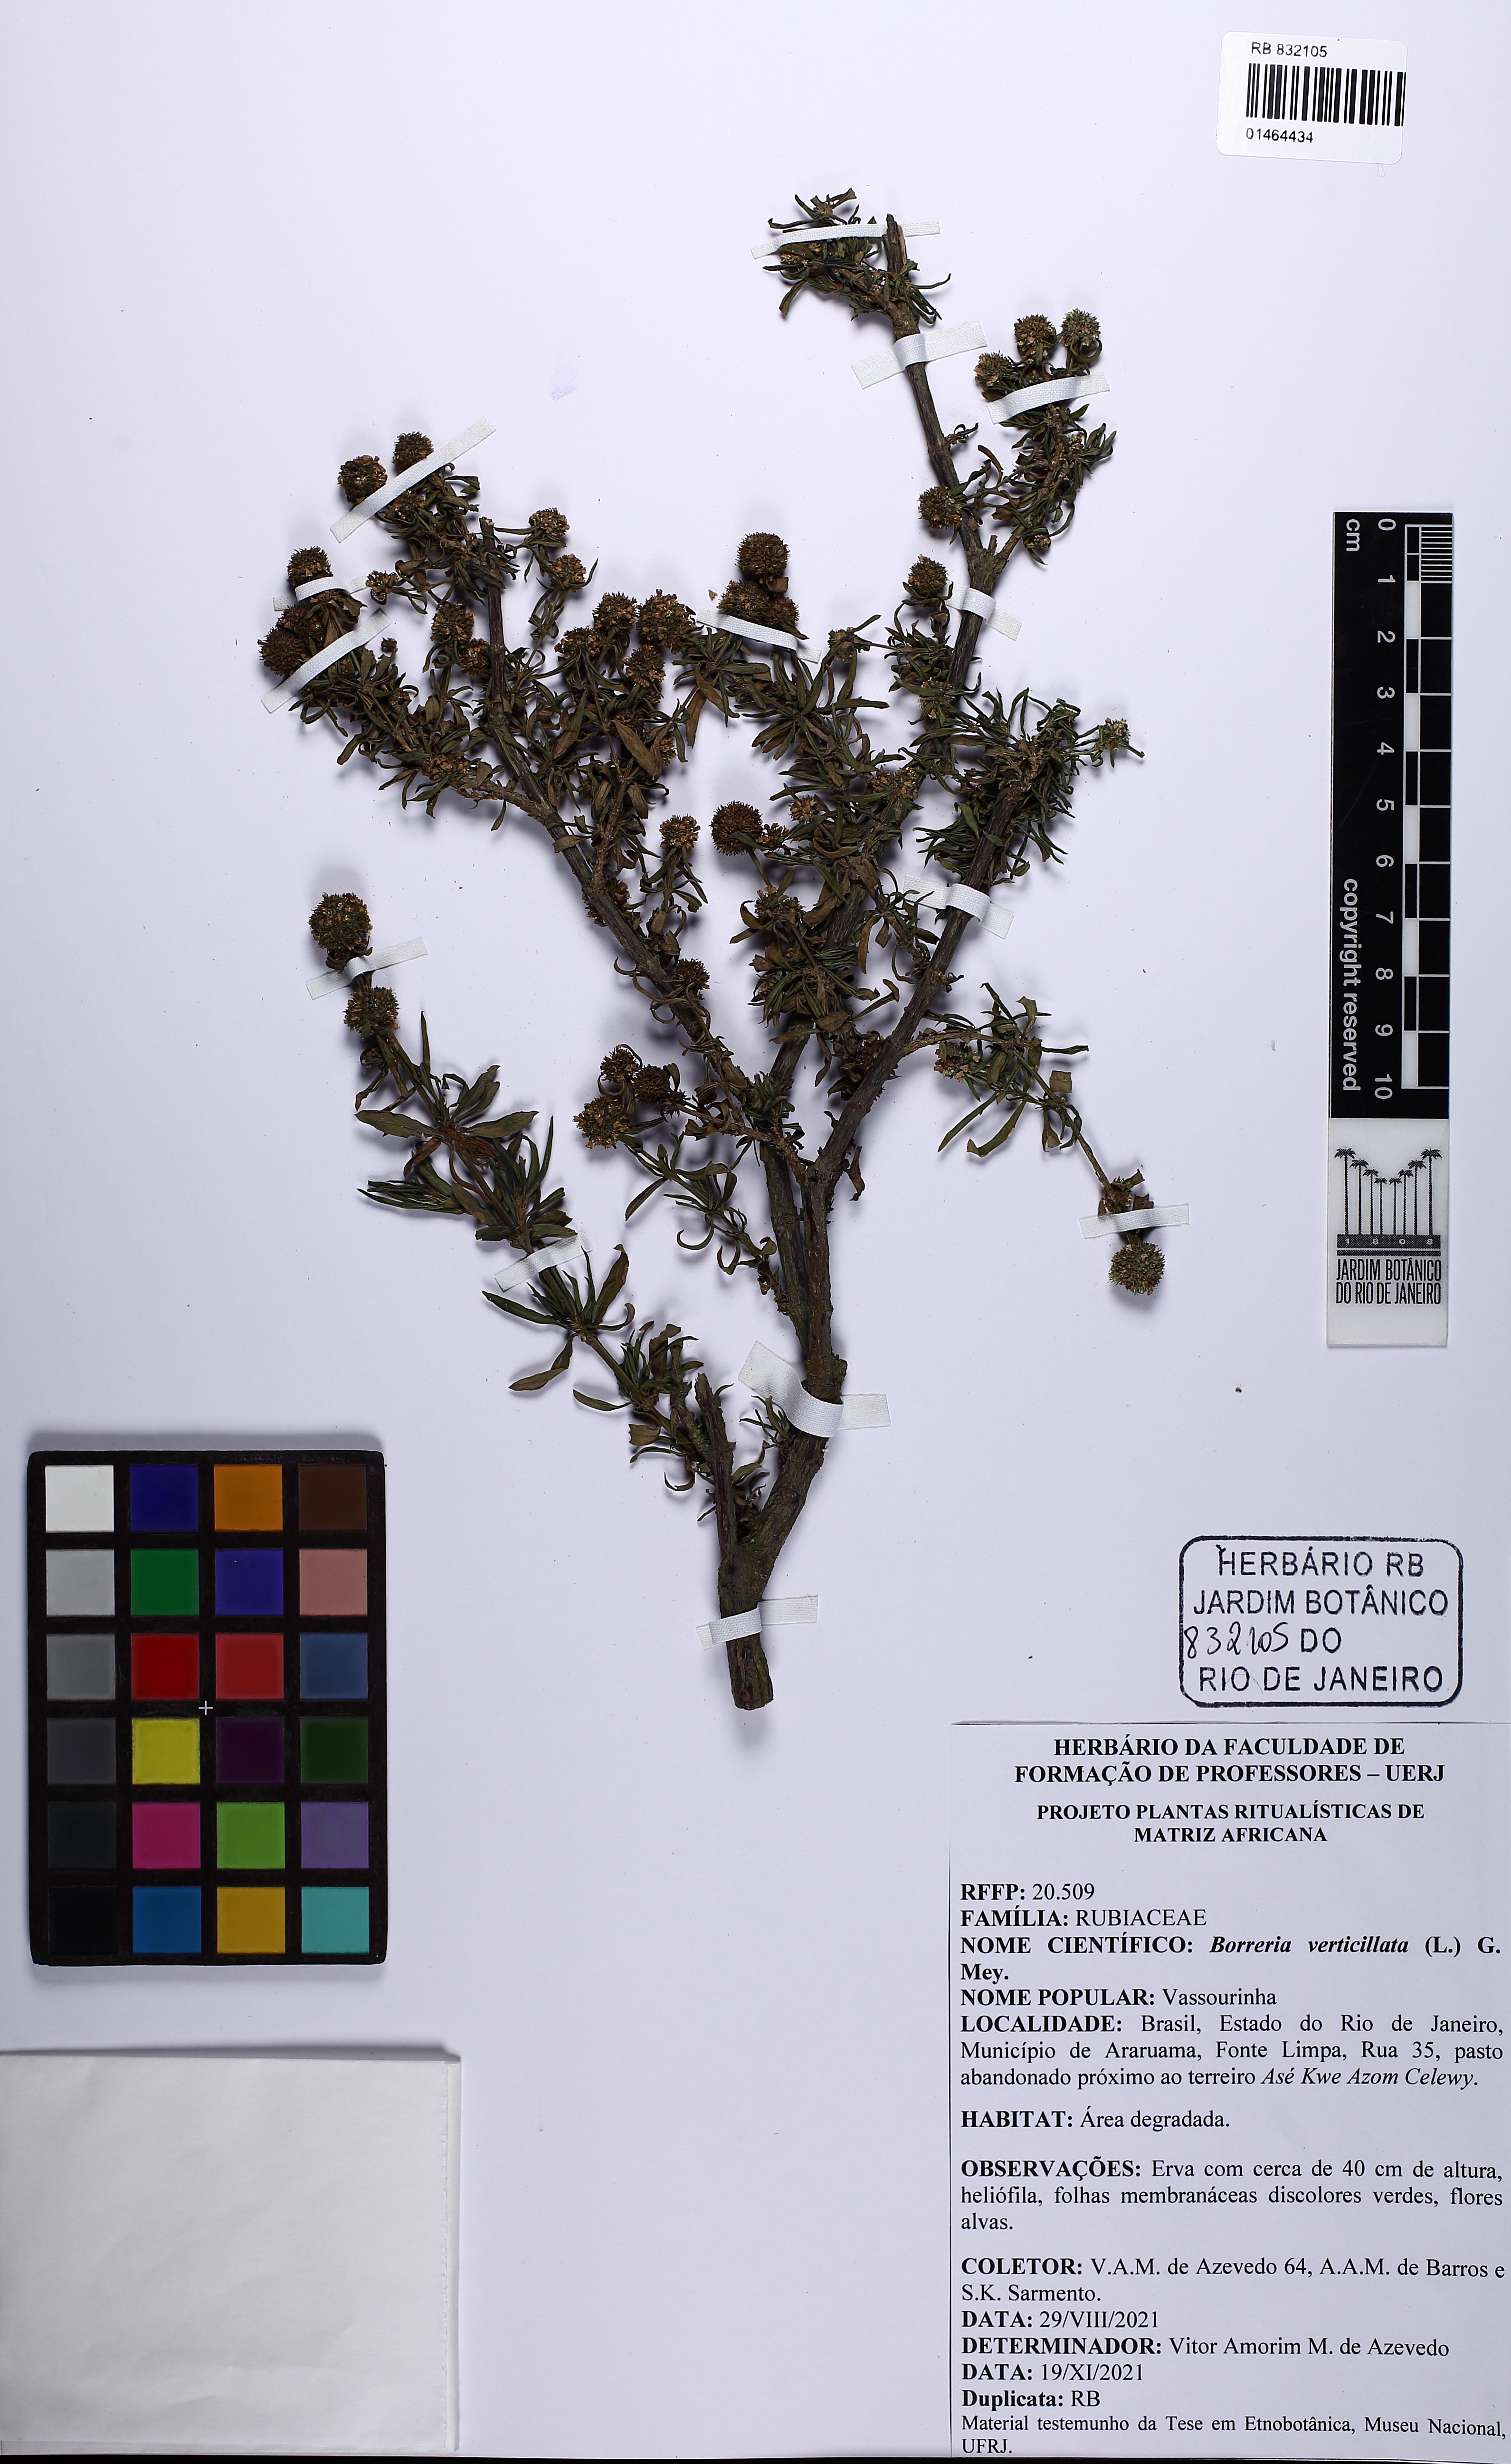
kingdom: Plantae
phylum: Tracheophyta
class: Magnoliopsida
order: Gentianales
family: Rubiaceae
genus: Spermacoce
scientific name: Spermacoce verticillata
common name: Shrubby false buttonweed
